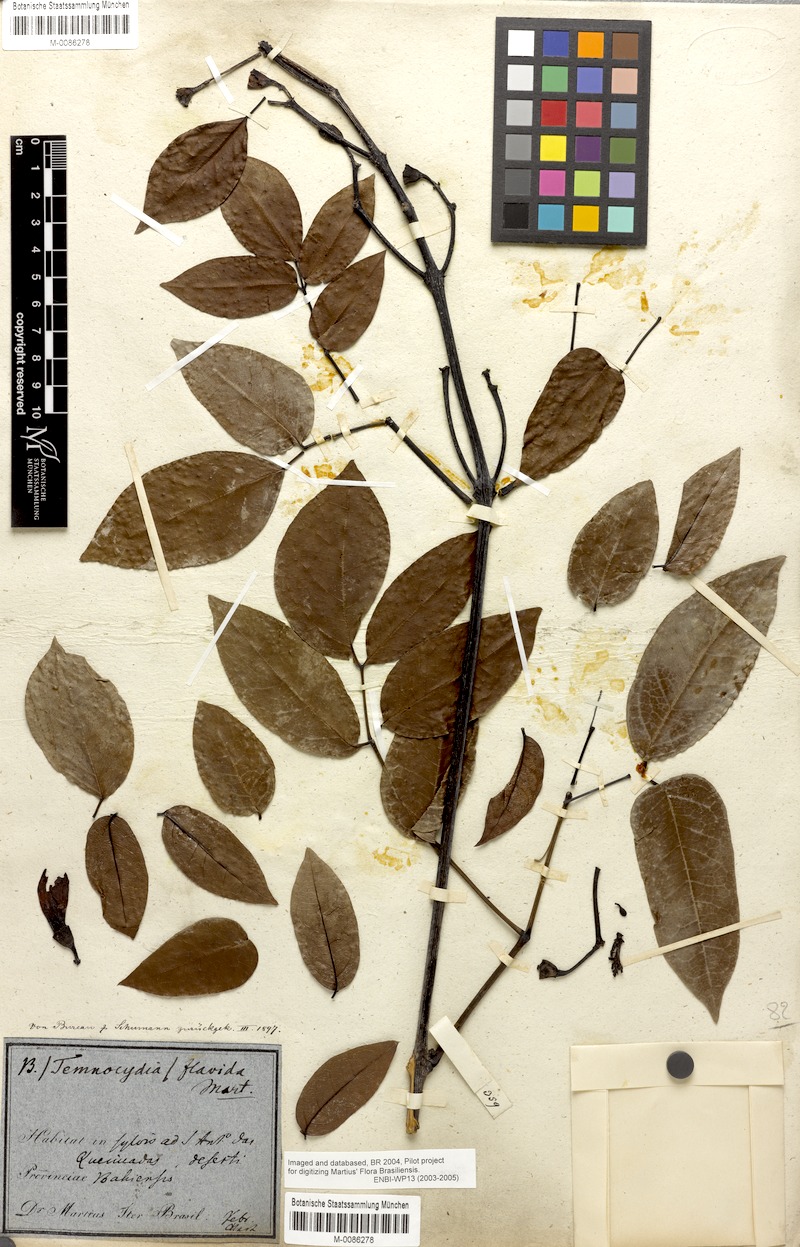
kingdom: Plantae
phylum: Tracheophyta
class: Magnoliopsida
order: Lamiales
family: Bignoniaceae
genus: Adenocalymma
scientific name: Adenocalymma neoflavidum
